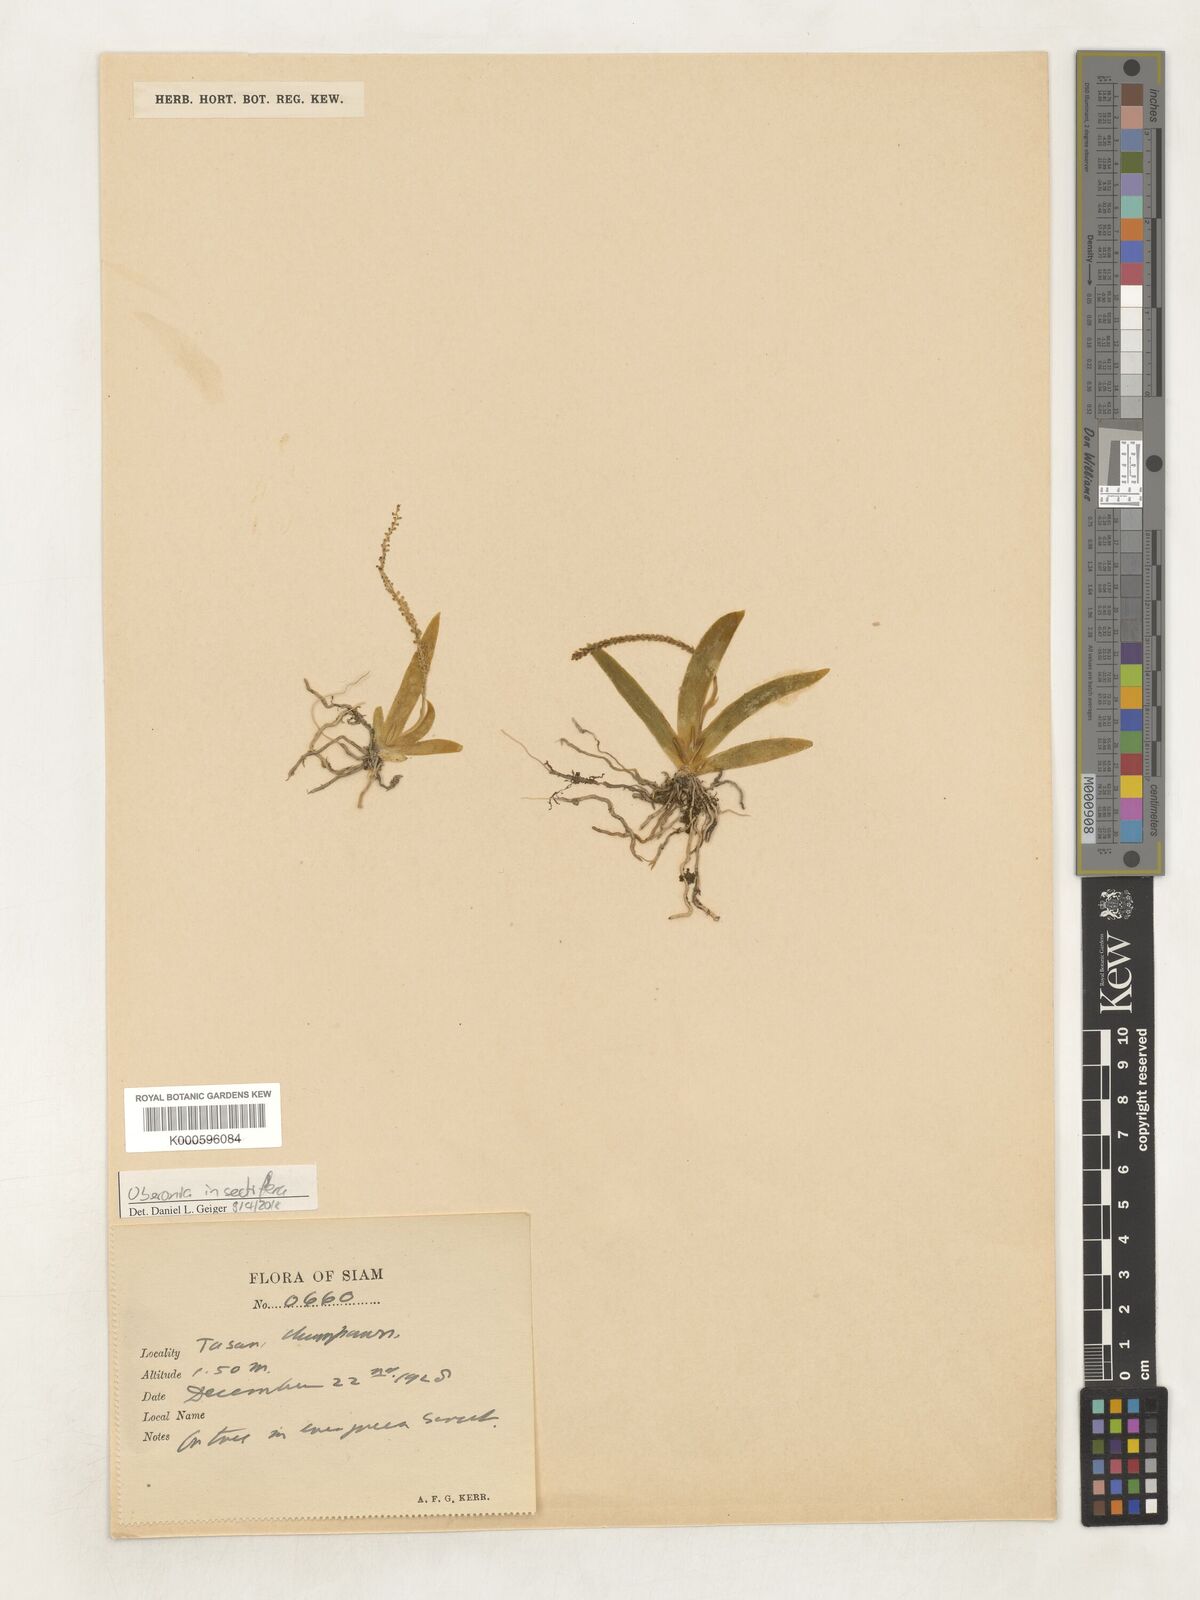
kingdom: Plantae
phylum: Tracheophyta
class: Liliopsida
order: Asparagales
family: Orchidaceae
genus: Oberonia
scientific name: Oberonia insectifera
